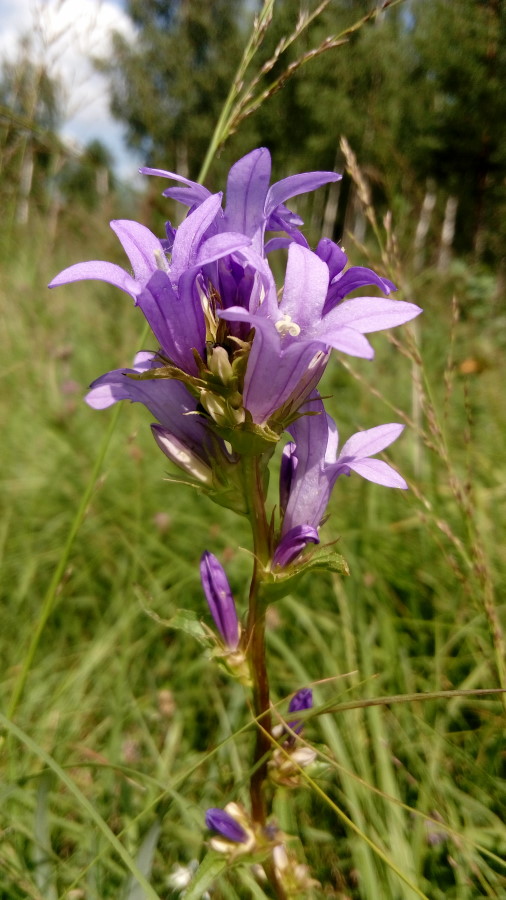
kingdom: Plantae
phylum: Tracheophyta
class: Magnoliopsida
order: Asterales
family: Campanulaceae
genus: Campanula
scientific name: Campanula glomerata
